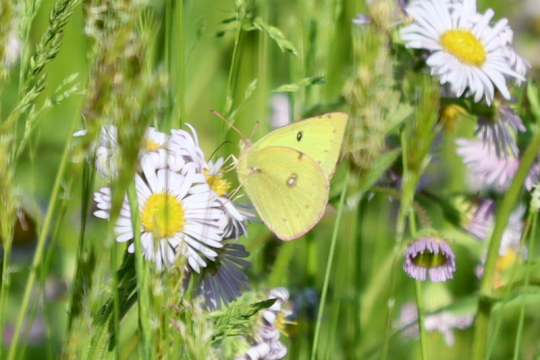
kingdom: Animalia
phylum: Arthropoda
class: Insecta
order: Lepidoptera
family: Pieridae
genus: Colias
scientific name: Colias philodice
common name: Clouded Sulphur
